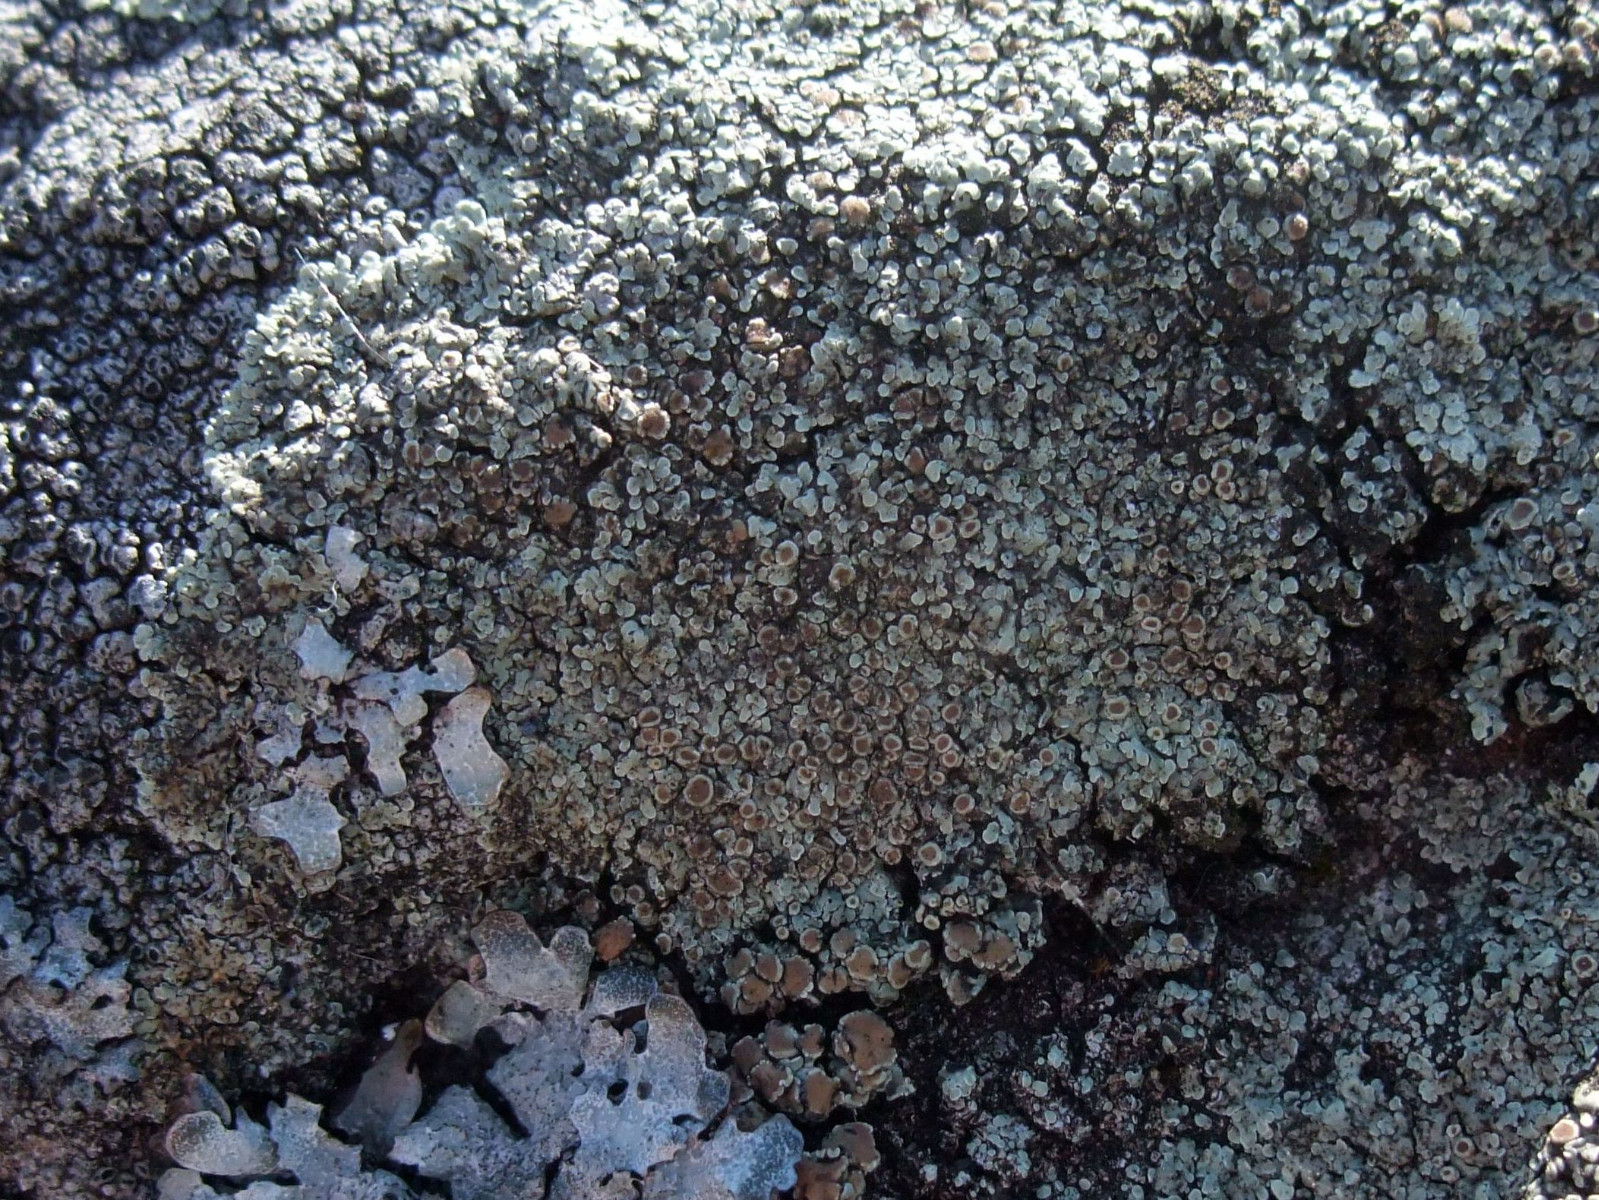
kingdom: Fungi
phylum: Ascomycota
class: Lecanoromycetes
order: Lecanorales
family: Lecanoraceae
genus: Protoparmeliopsis
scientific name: Protoparmeliopsis muralis
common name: randfliget kantskivelav
